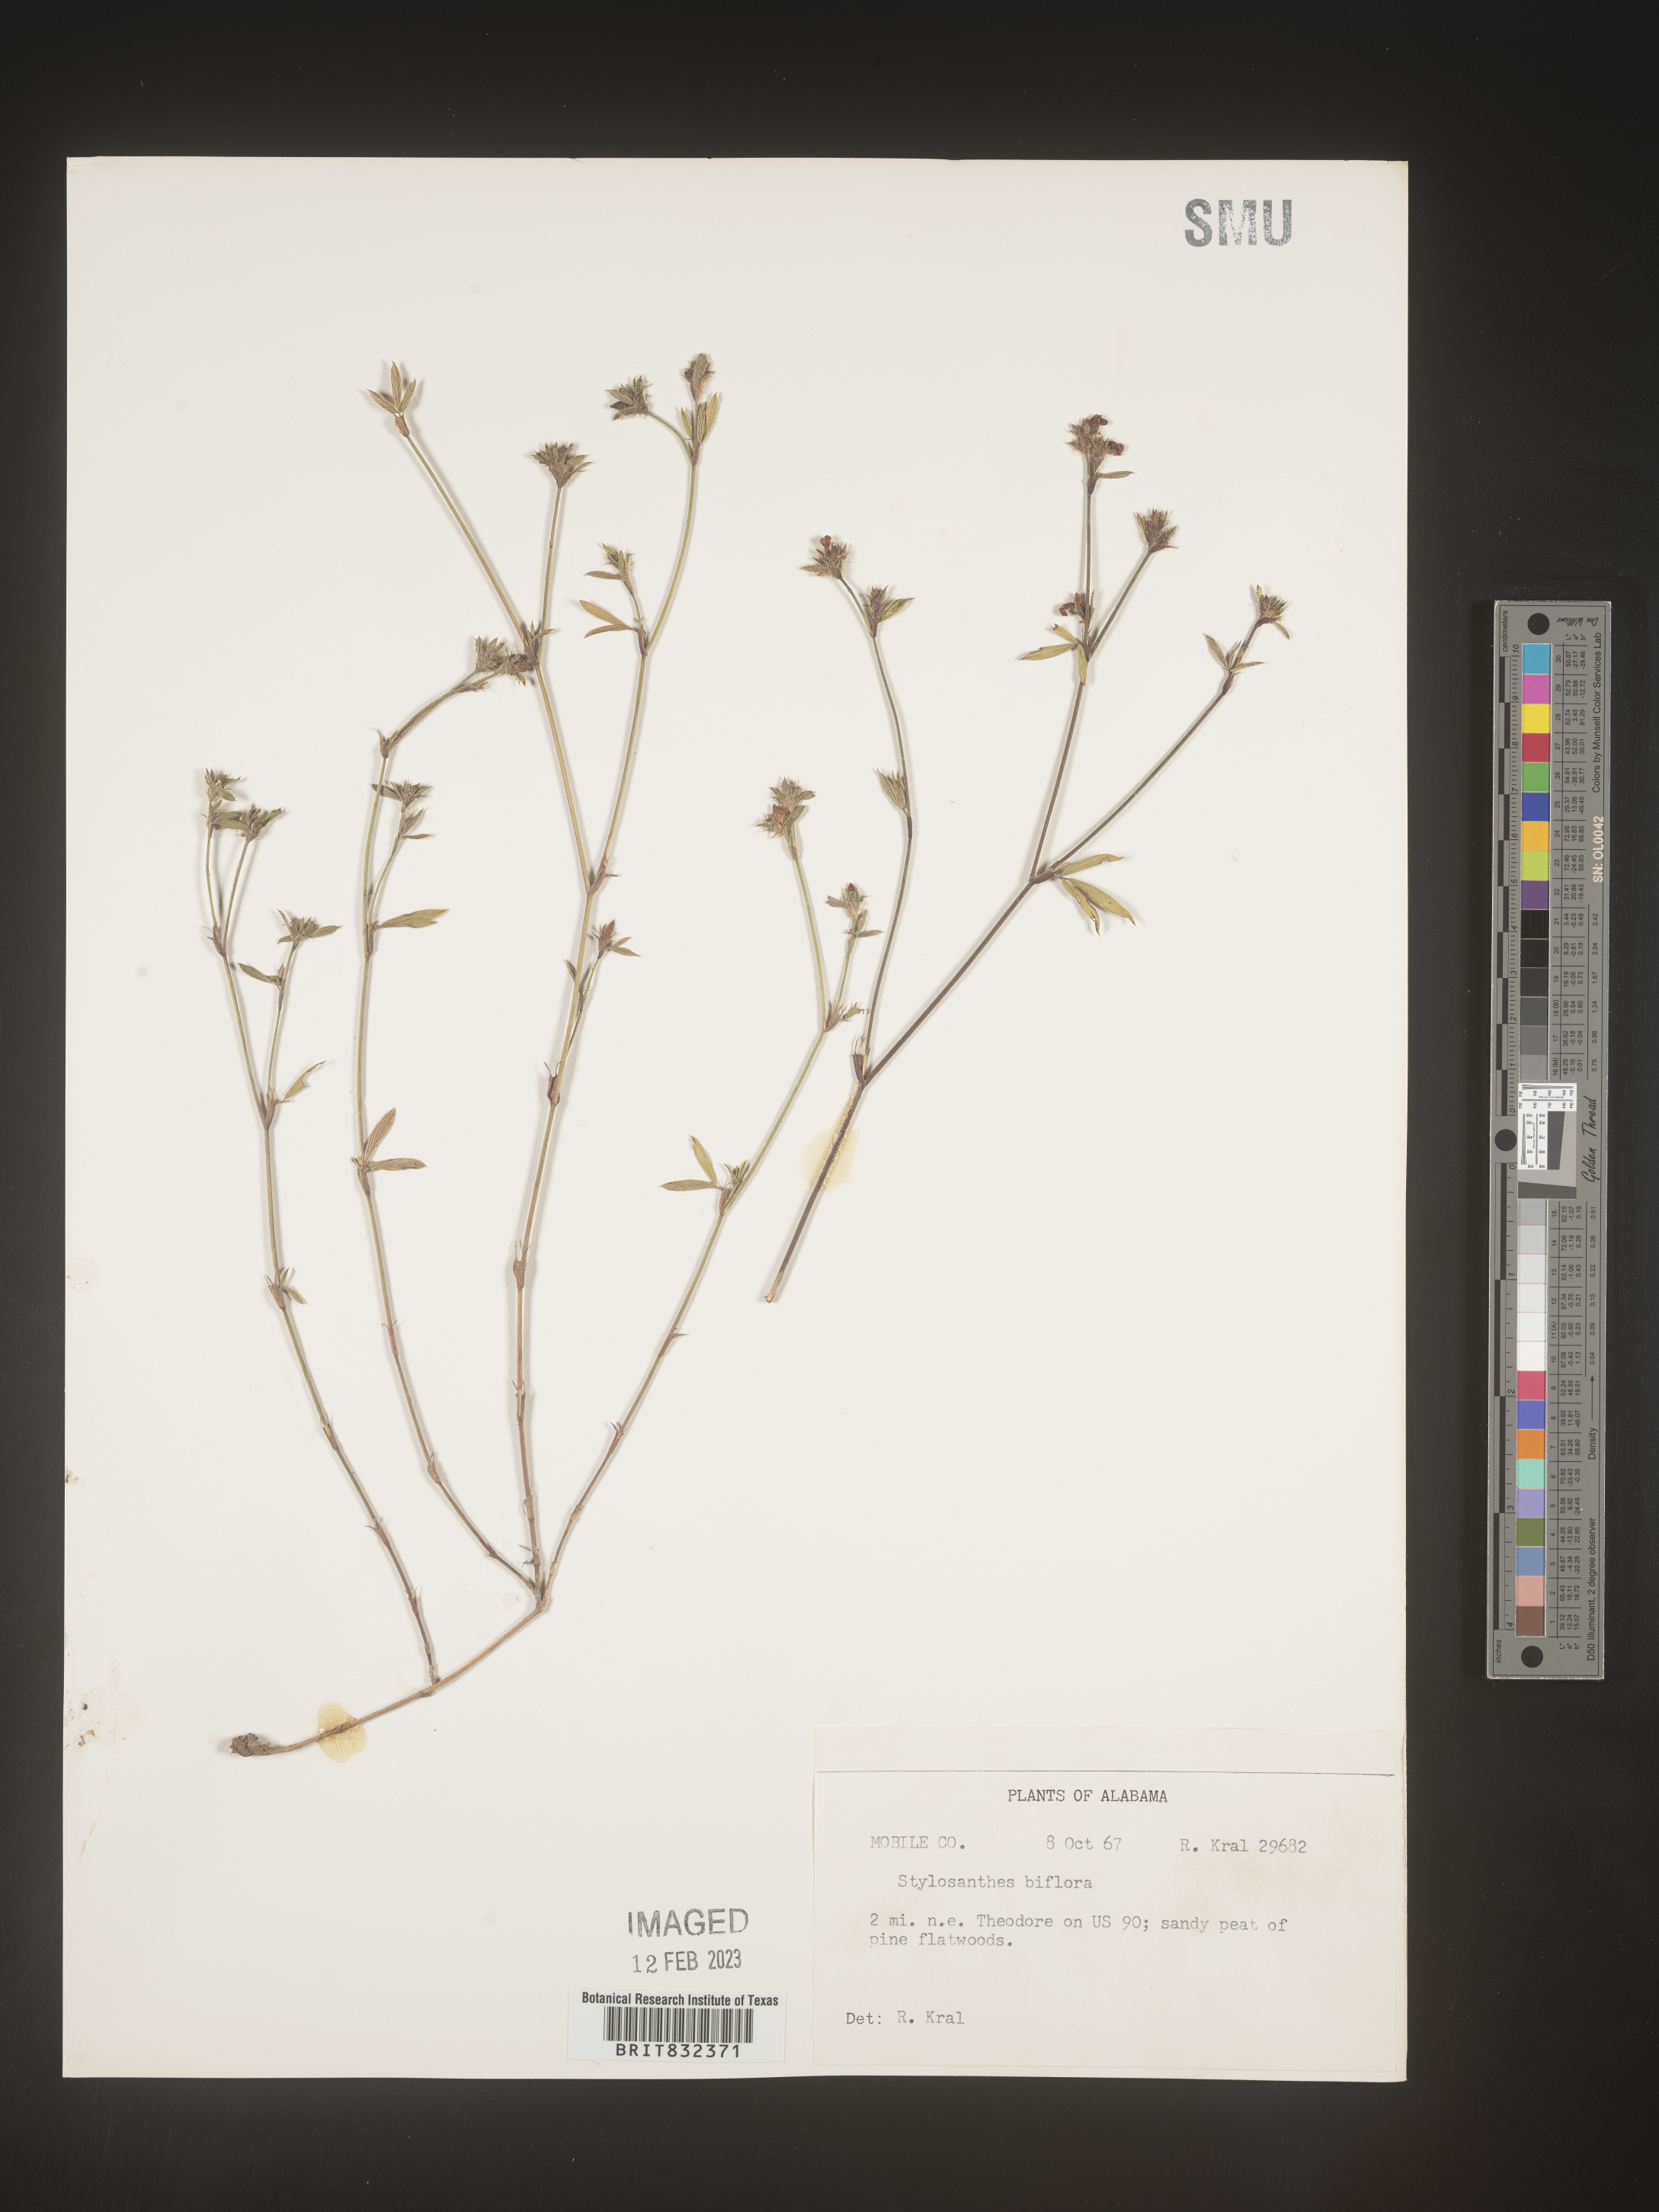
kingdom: Plantae
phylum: Tracheophyta
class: Magnoliopsida
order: Fabales
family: Fabaceae
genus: Stylosanthes
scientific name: Stylosanthes biflora
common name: Two-flower pencil-flower
